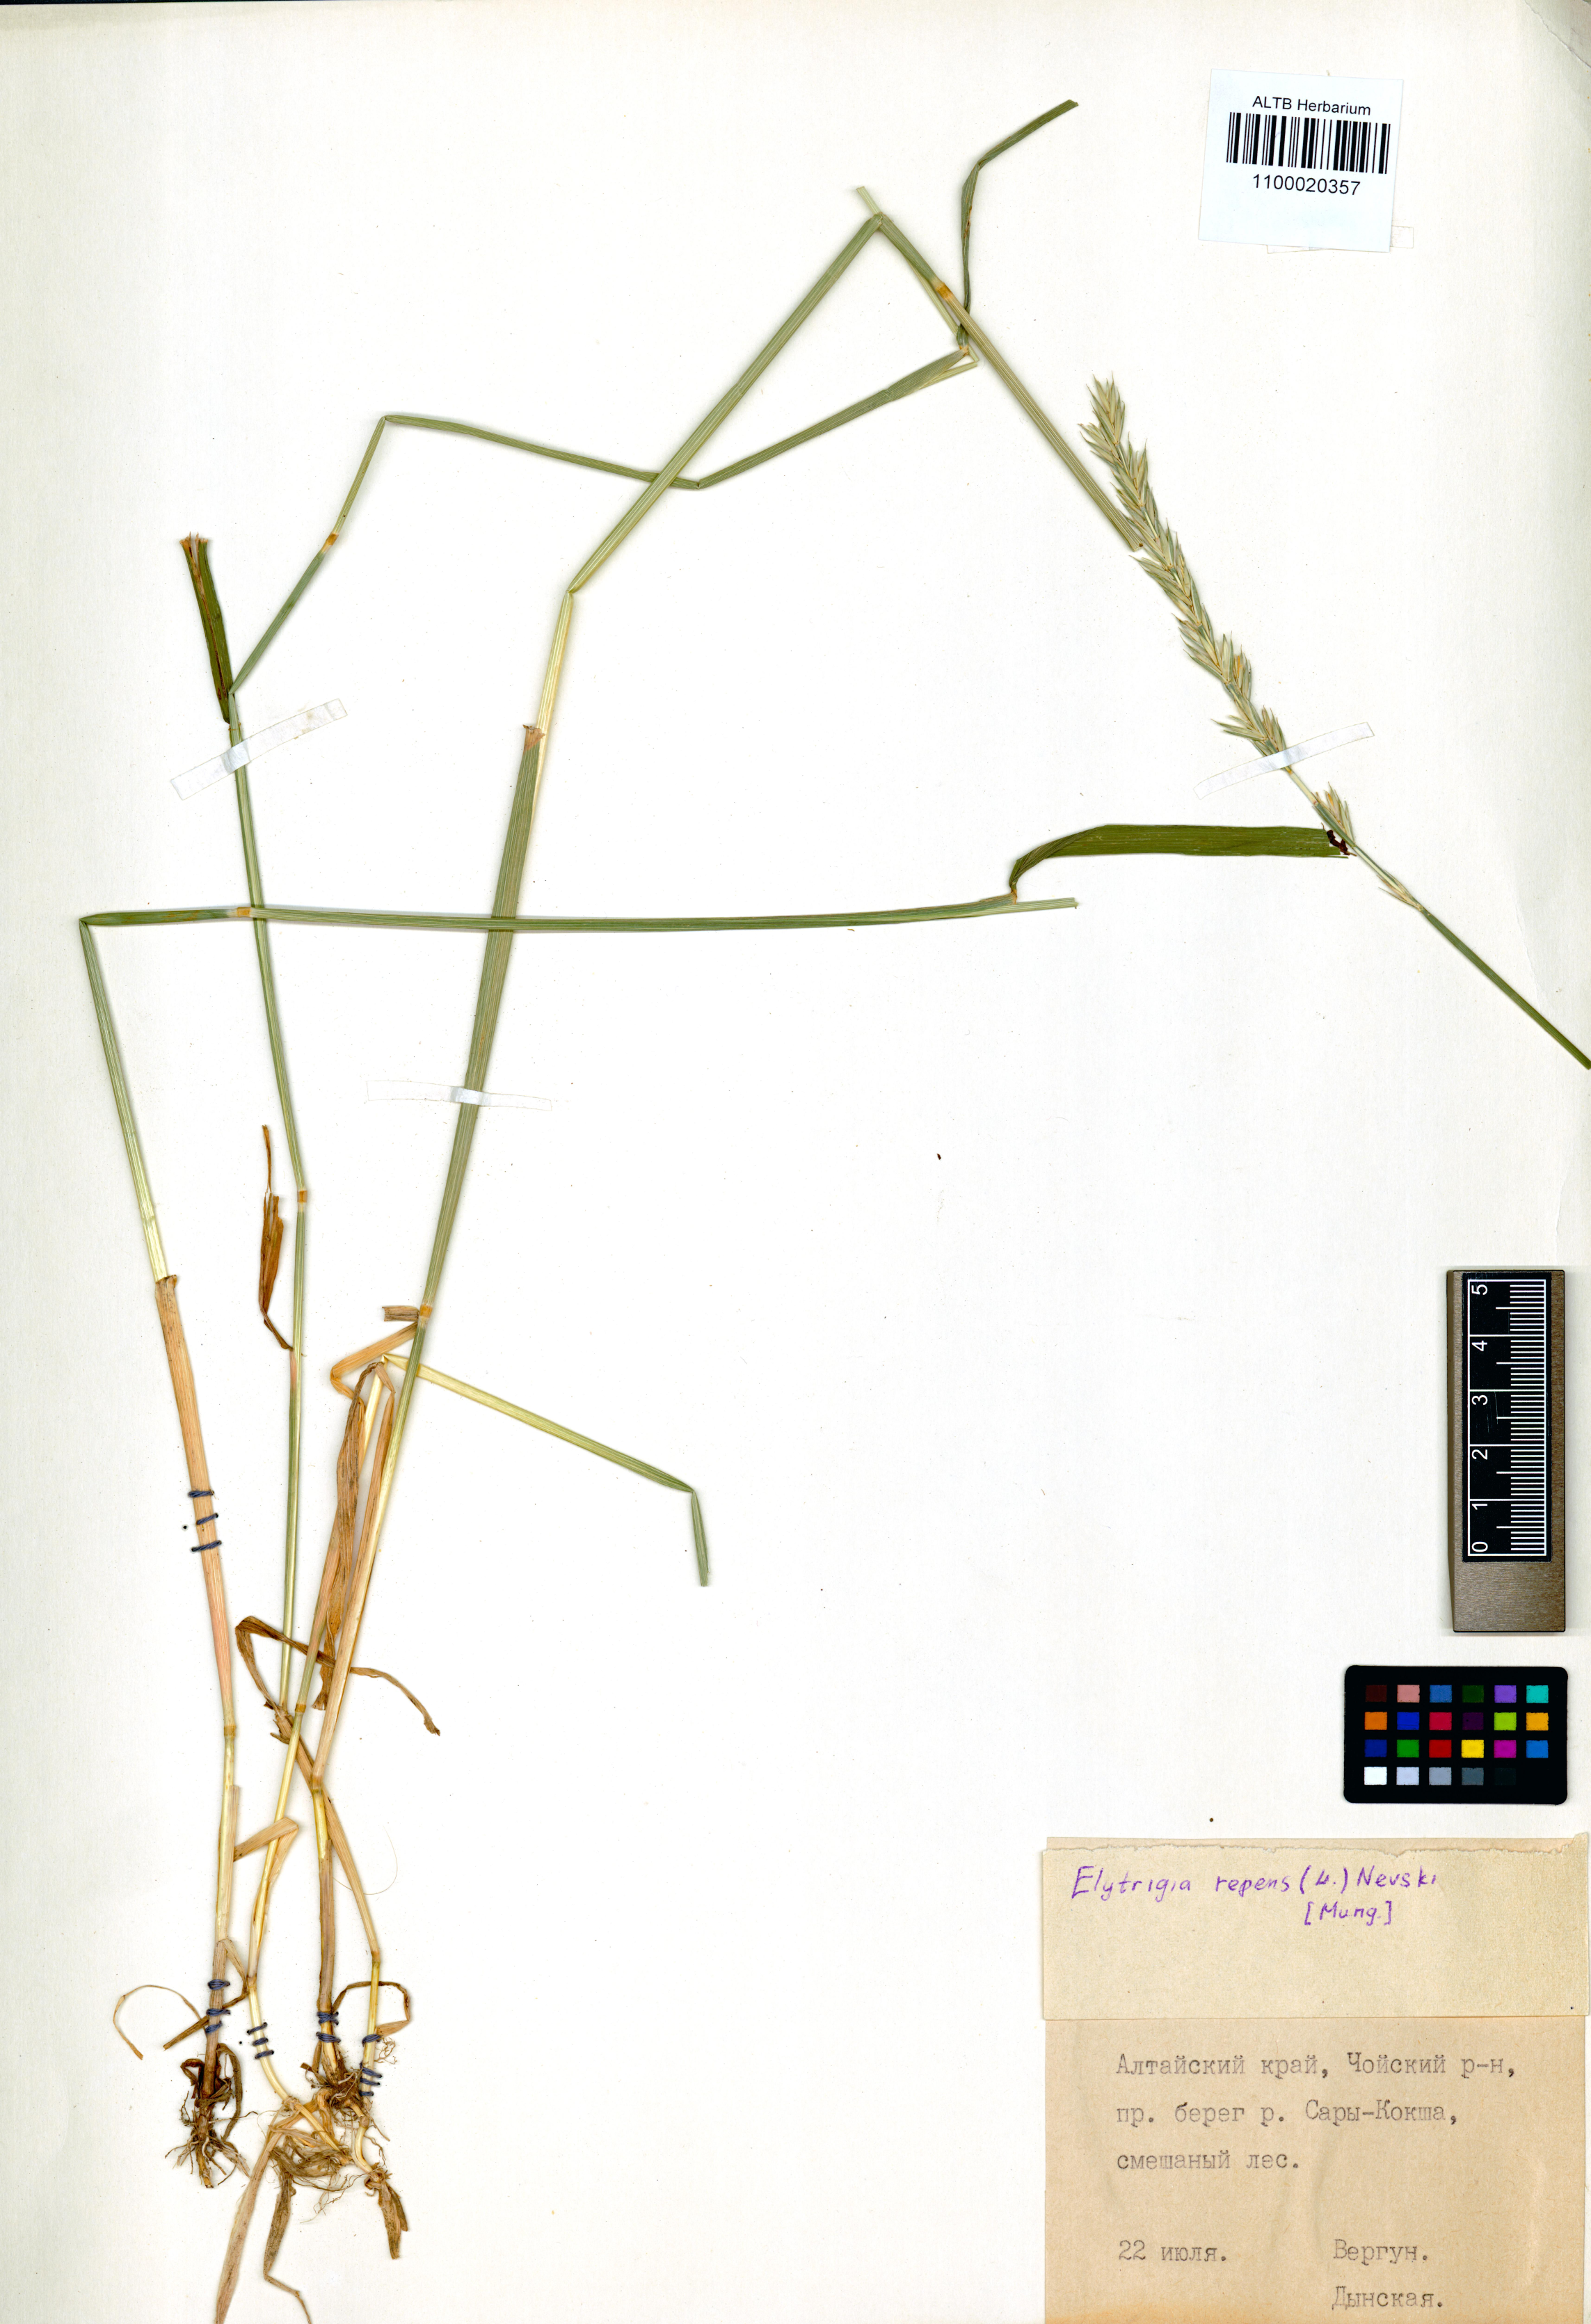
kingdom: Plantae
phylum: Tracheophyta
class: Liliopsida
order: Poales
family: Poaceae
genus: Elymus
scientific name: Elymus repens
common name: Quackgrass
